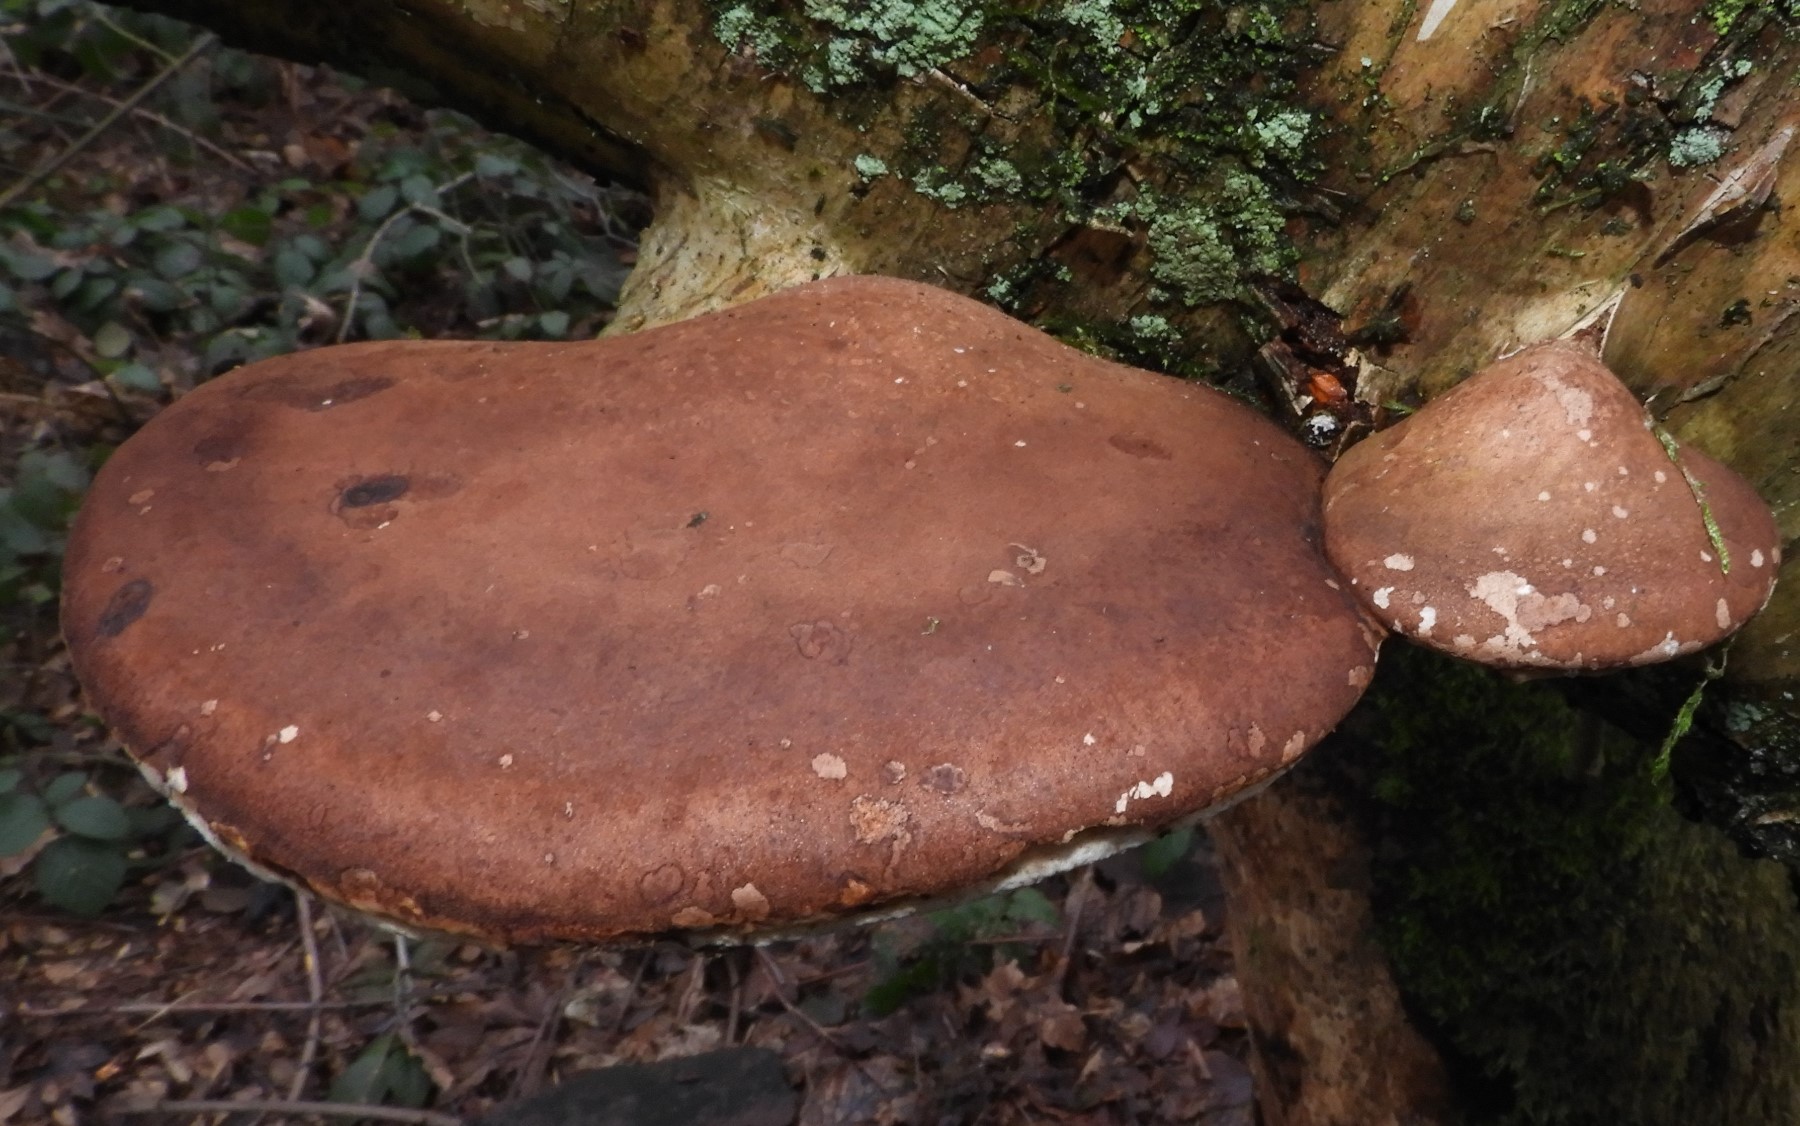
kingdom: Fungi
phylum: Basidiomycota
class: Agaricomycetes
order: Polyporales
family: Fomitopsidaceae
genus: Fomitopsis
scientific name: Fomitopsis betulina
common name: birkeporesvamp
